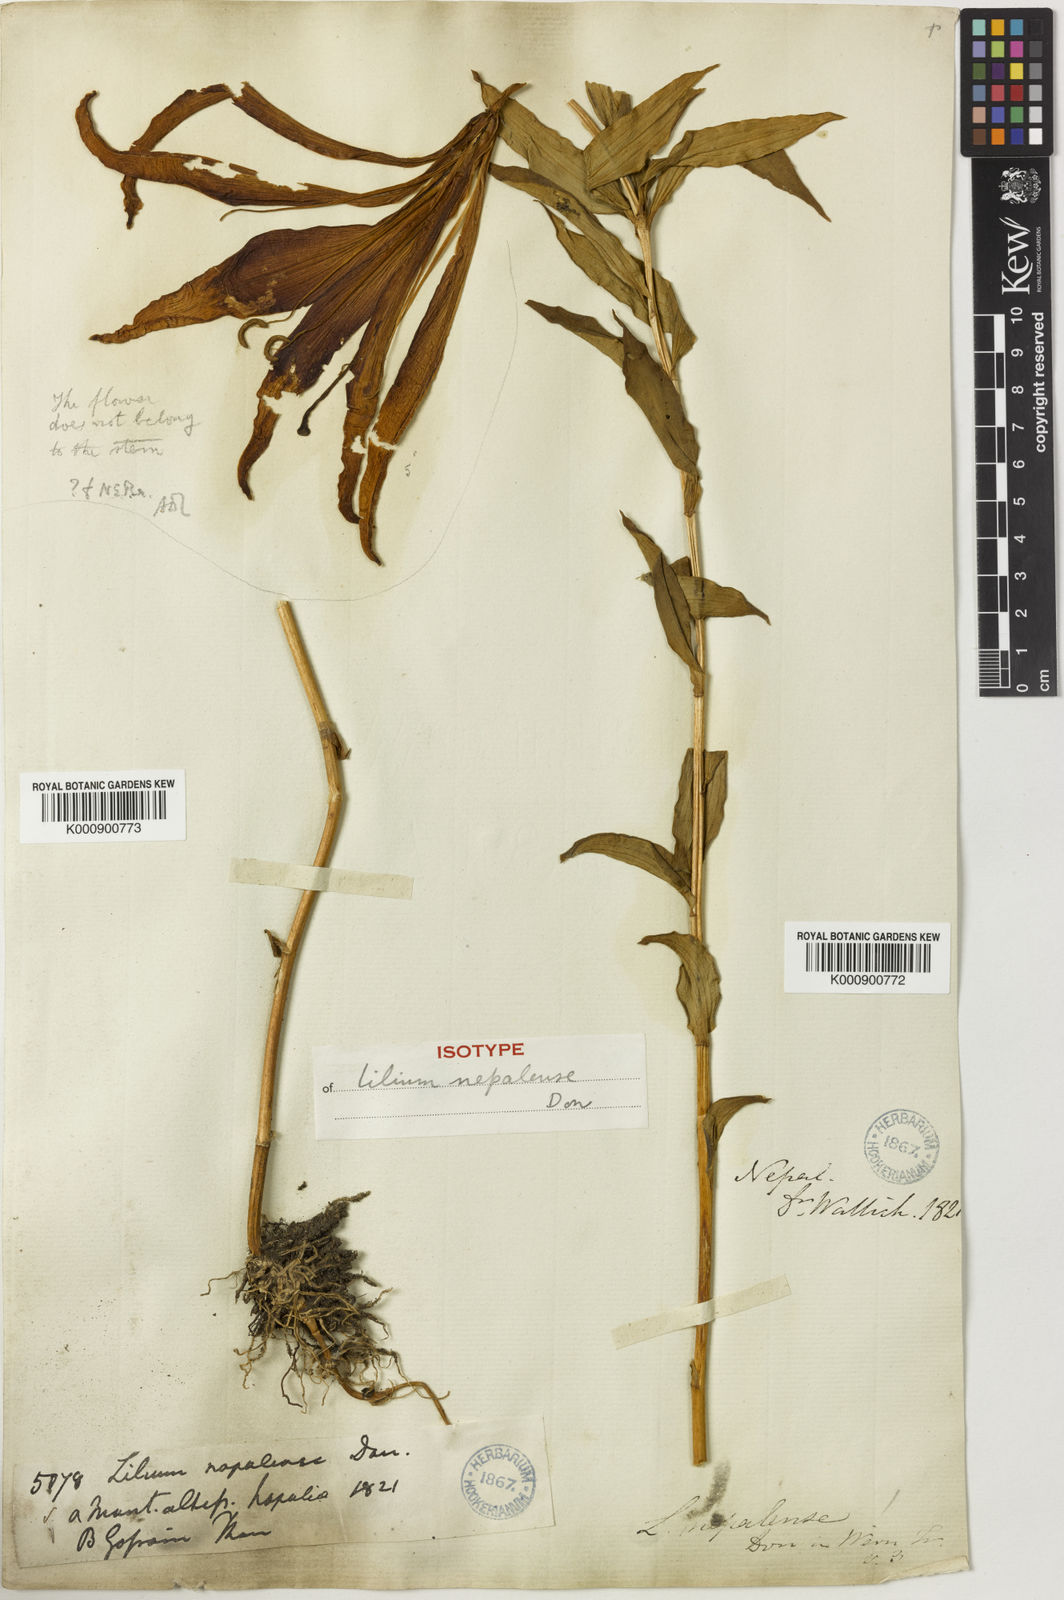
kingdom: Plantae
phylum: Tracheophyta
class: Liliopsida
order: Liliales
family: Liliaceae
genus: Lilium
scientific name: Lilium nepalense
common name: Nepal lily
